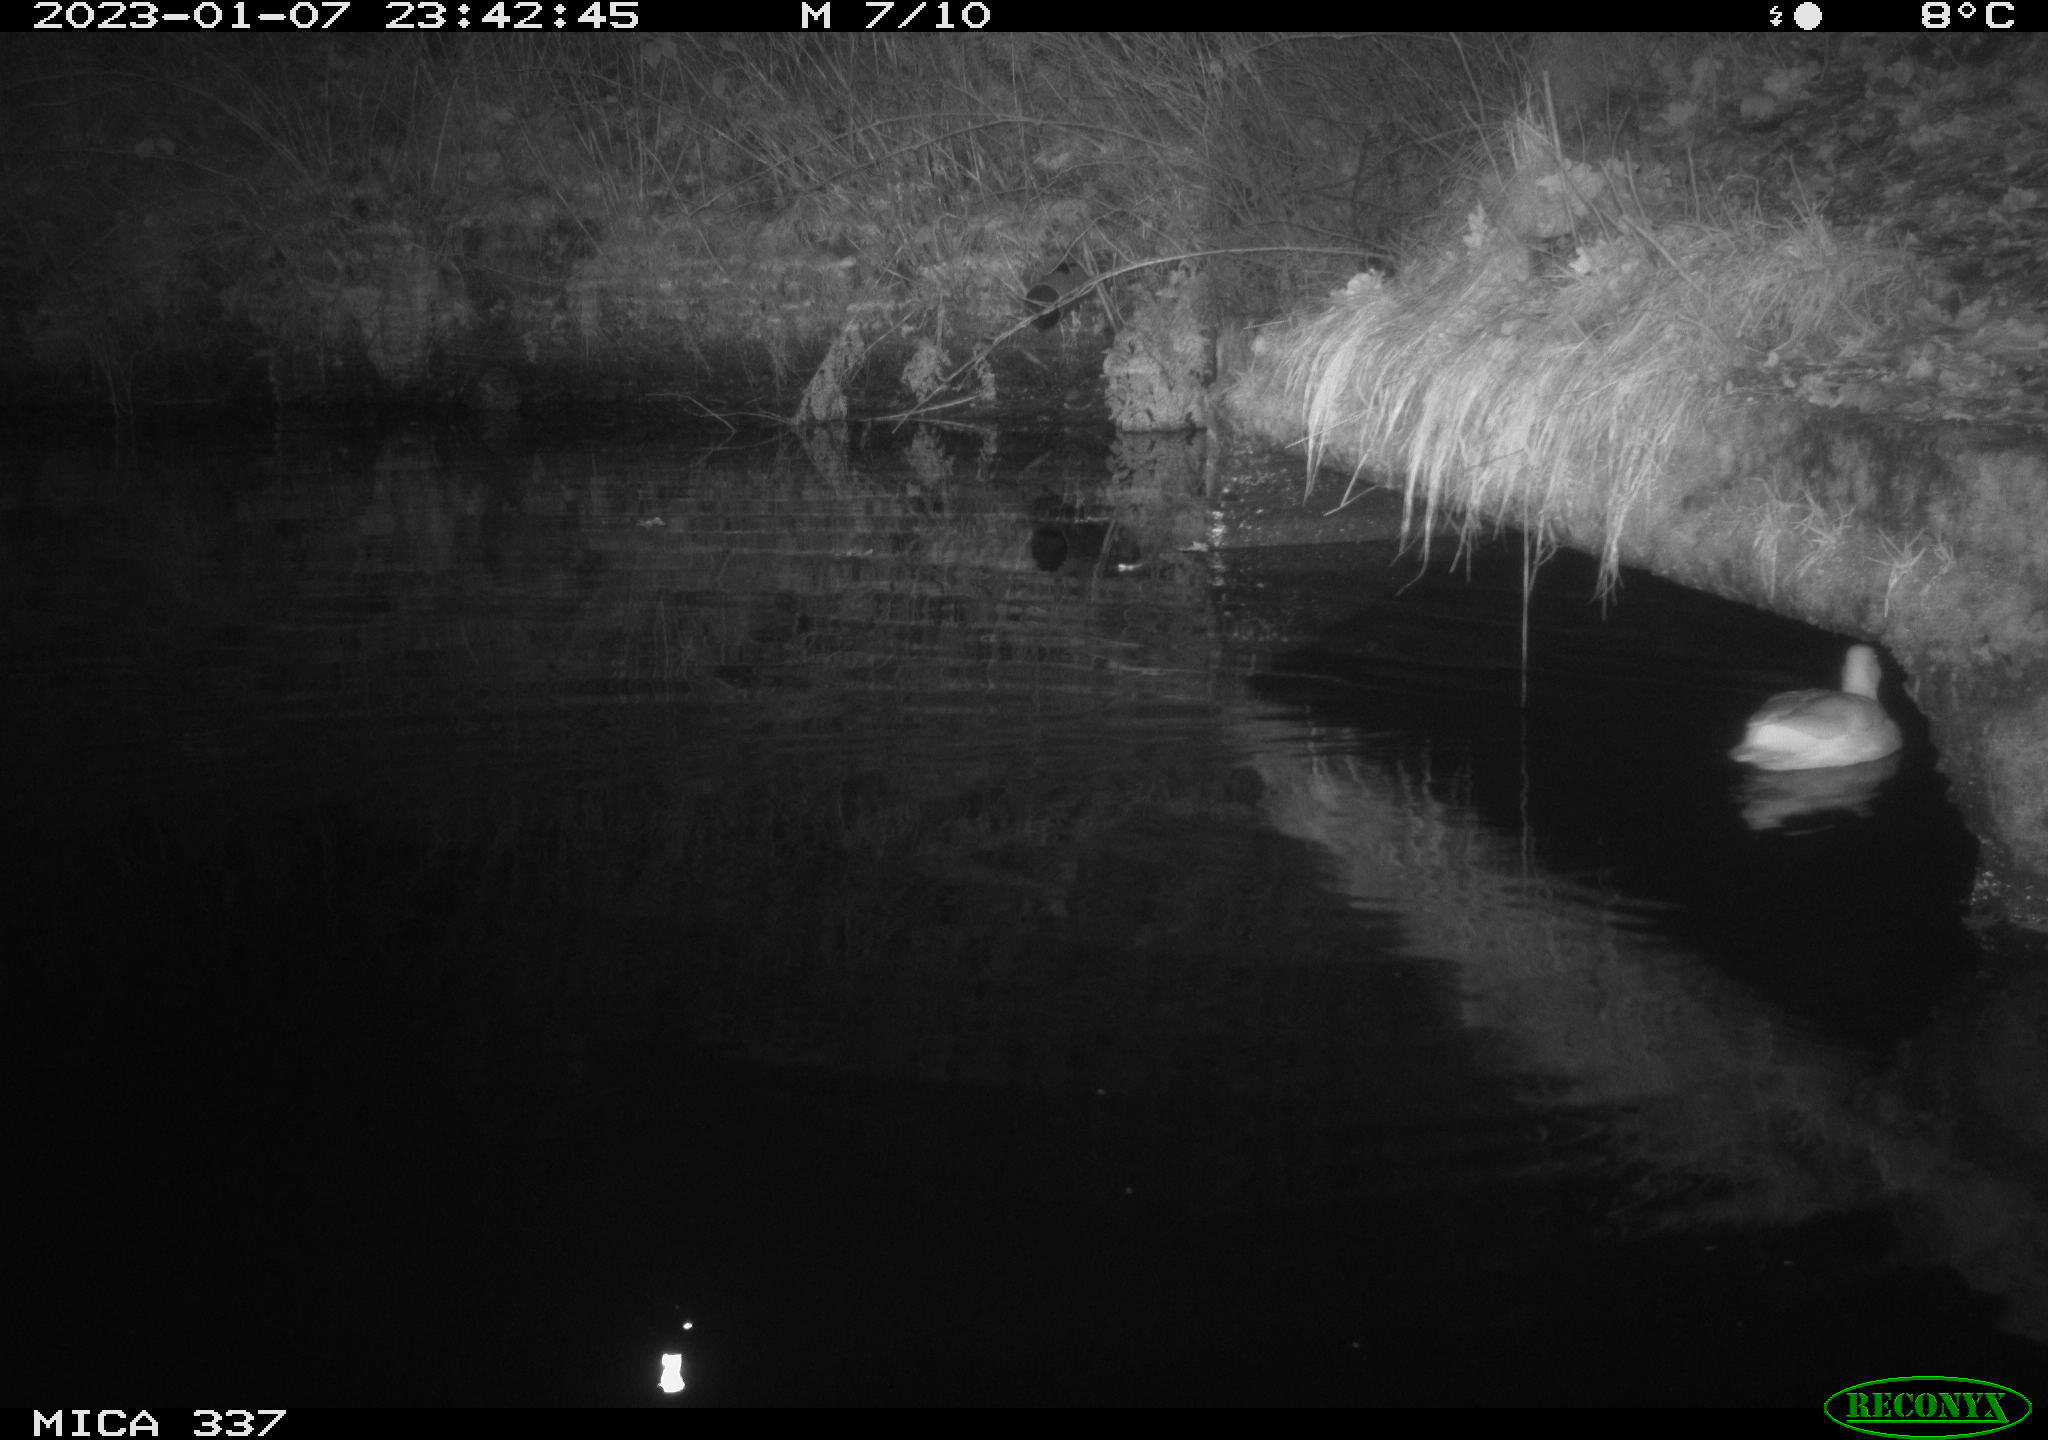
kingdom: Animalia
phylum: Chordata
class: Aves
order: Anseriformes
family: Anatidae
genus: Anas
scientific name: Anas
